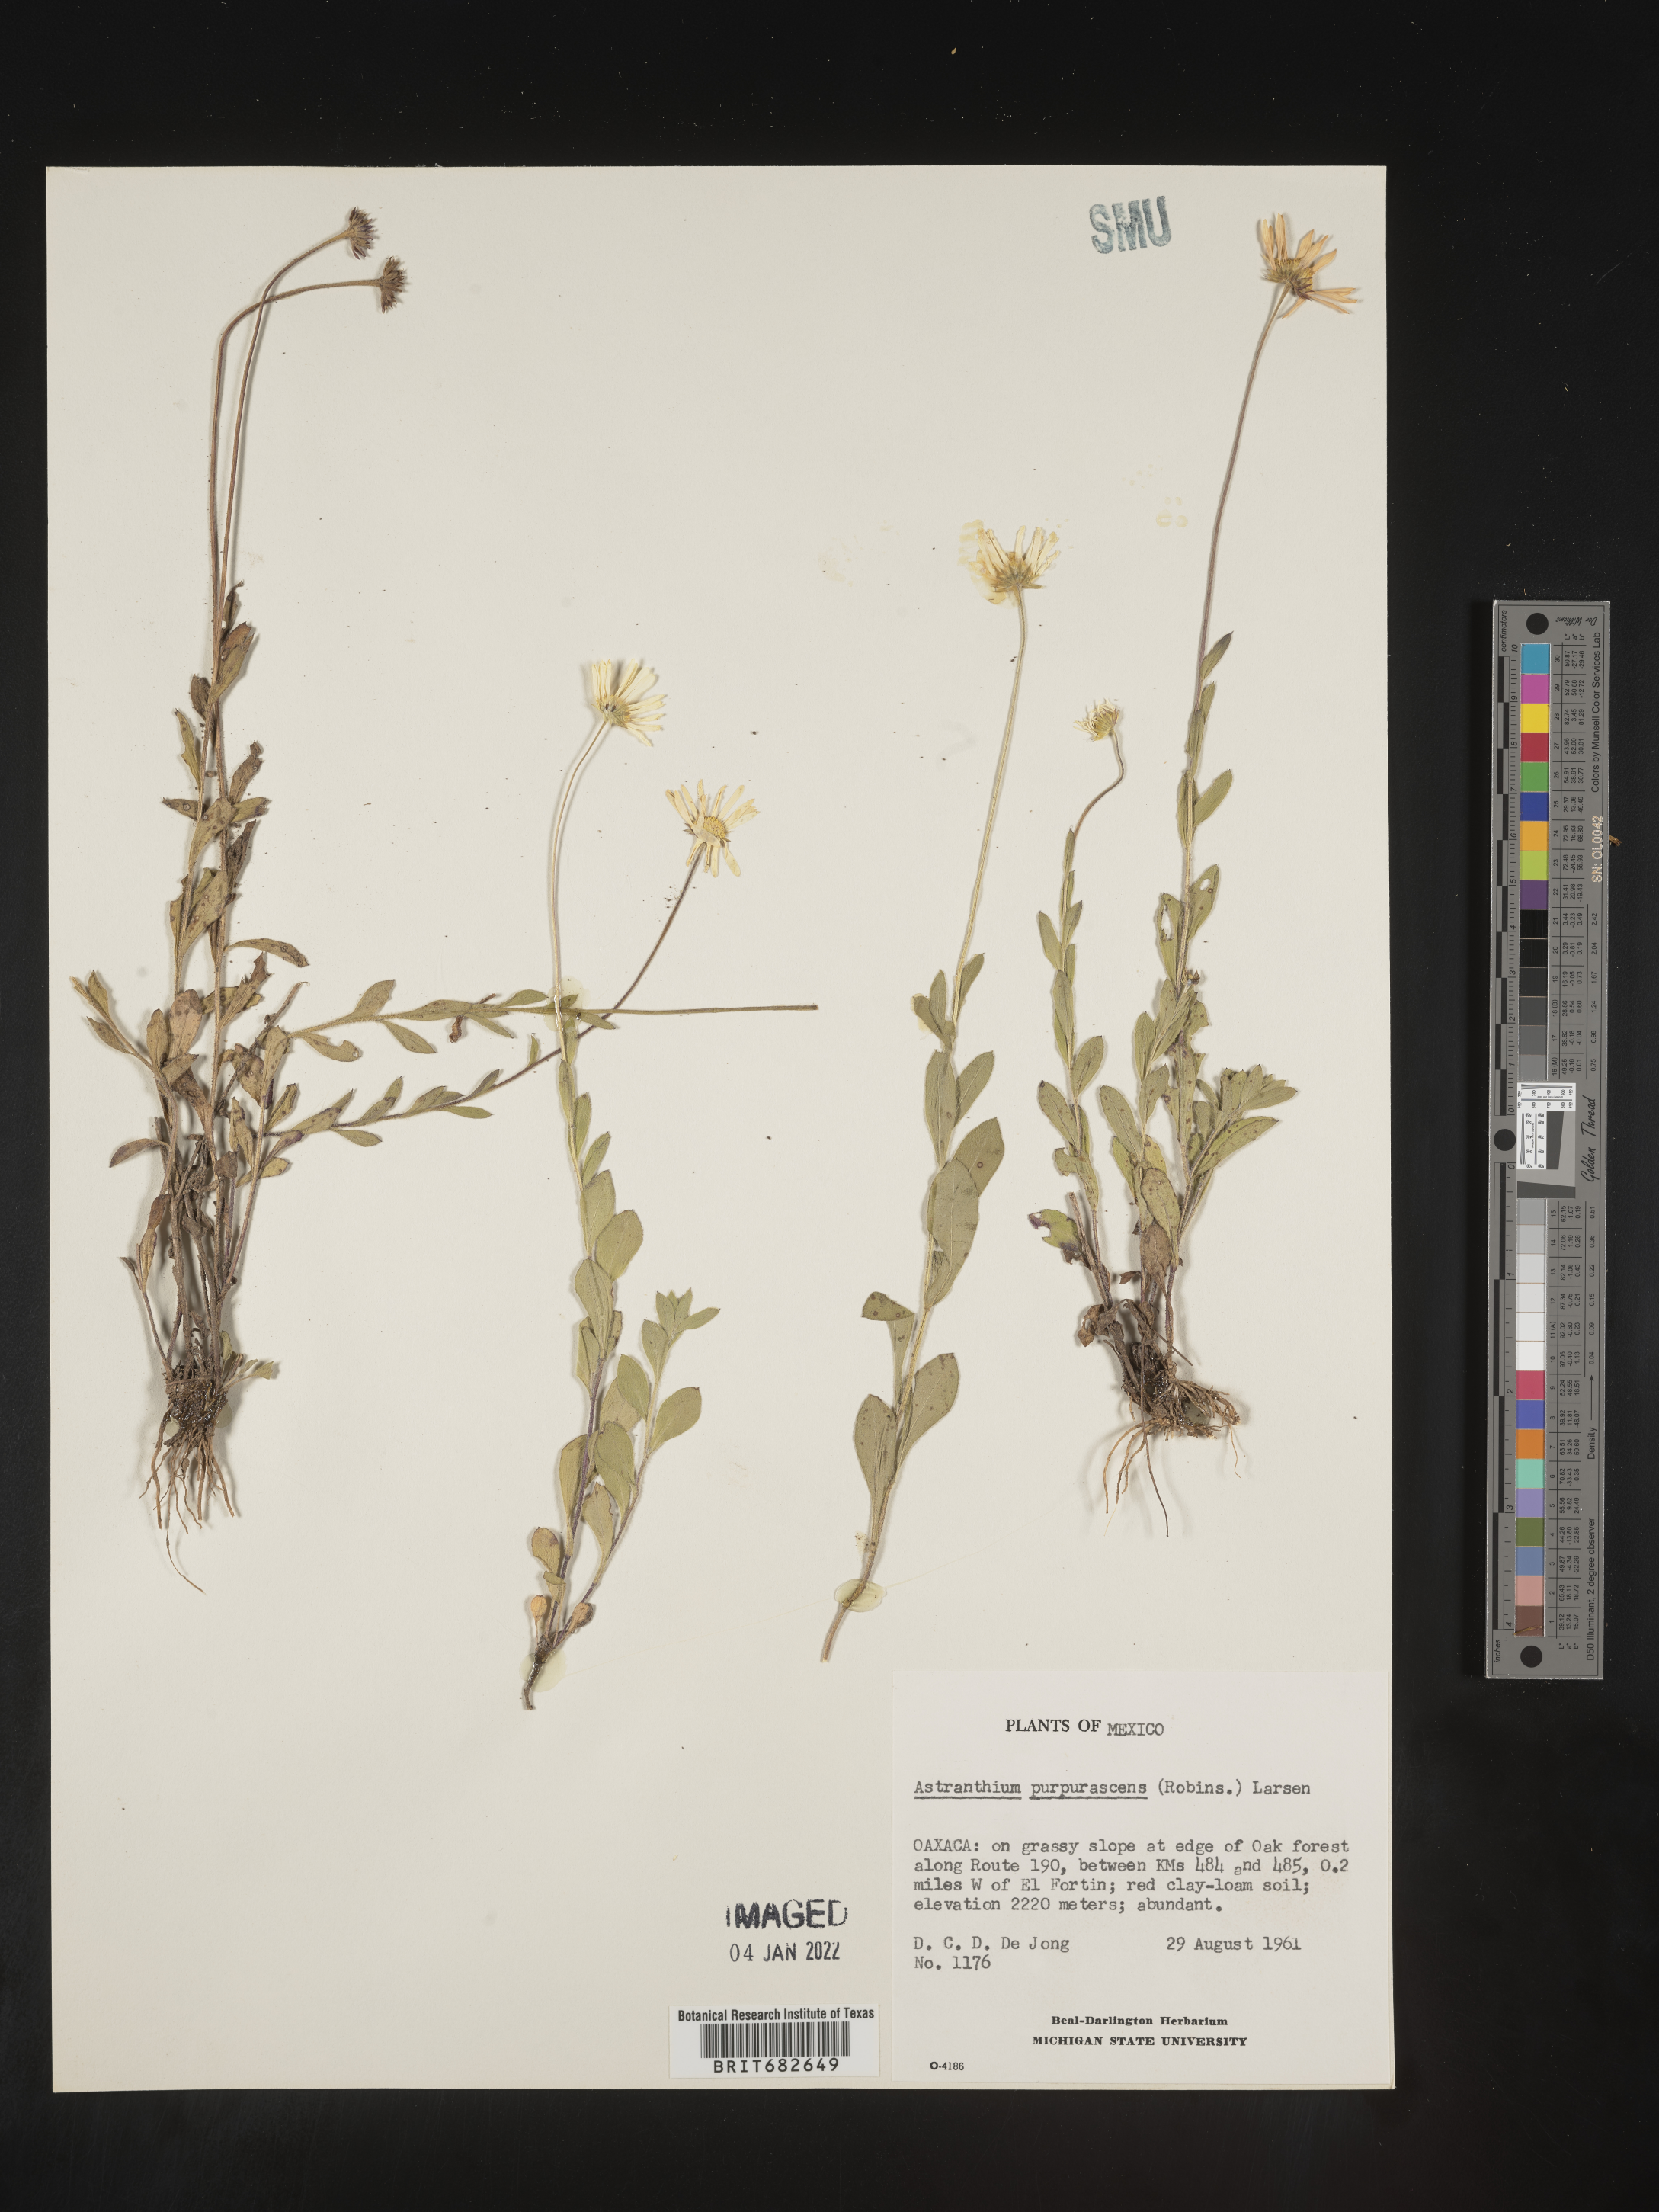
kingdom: Plantae
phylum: Tracheophyta
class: Magnoliopsida
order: Asterales
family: Asteraceae
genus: Astranthium
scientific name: Astranthium
